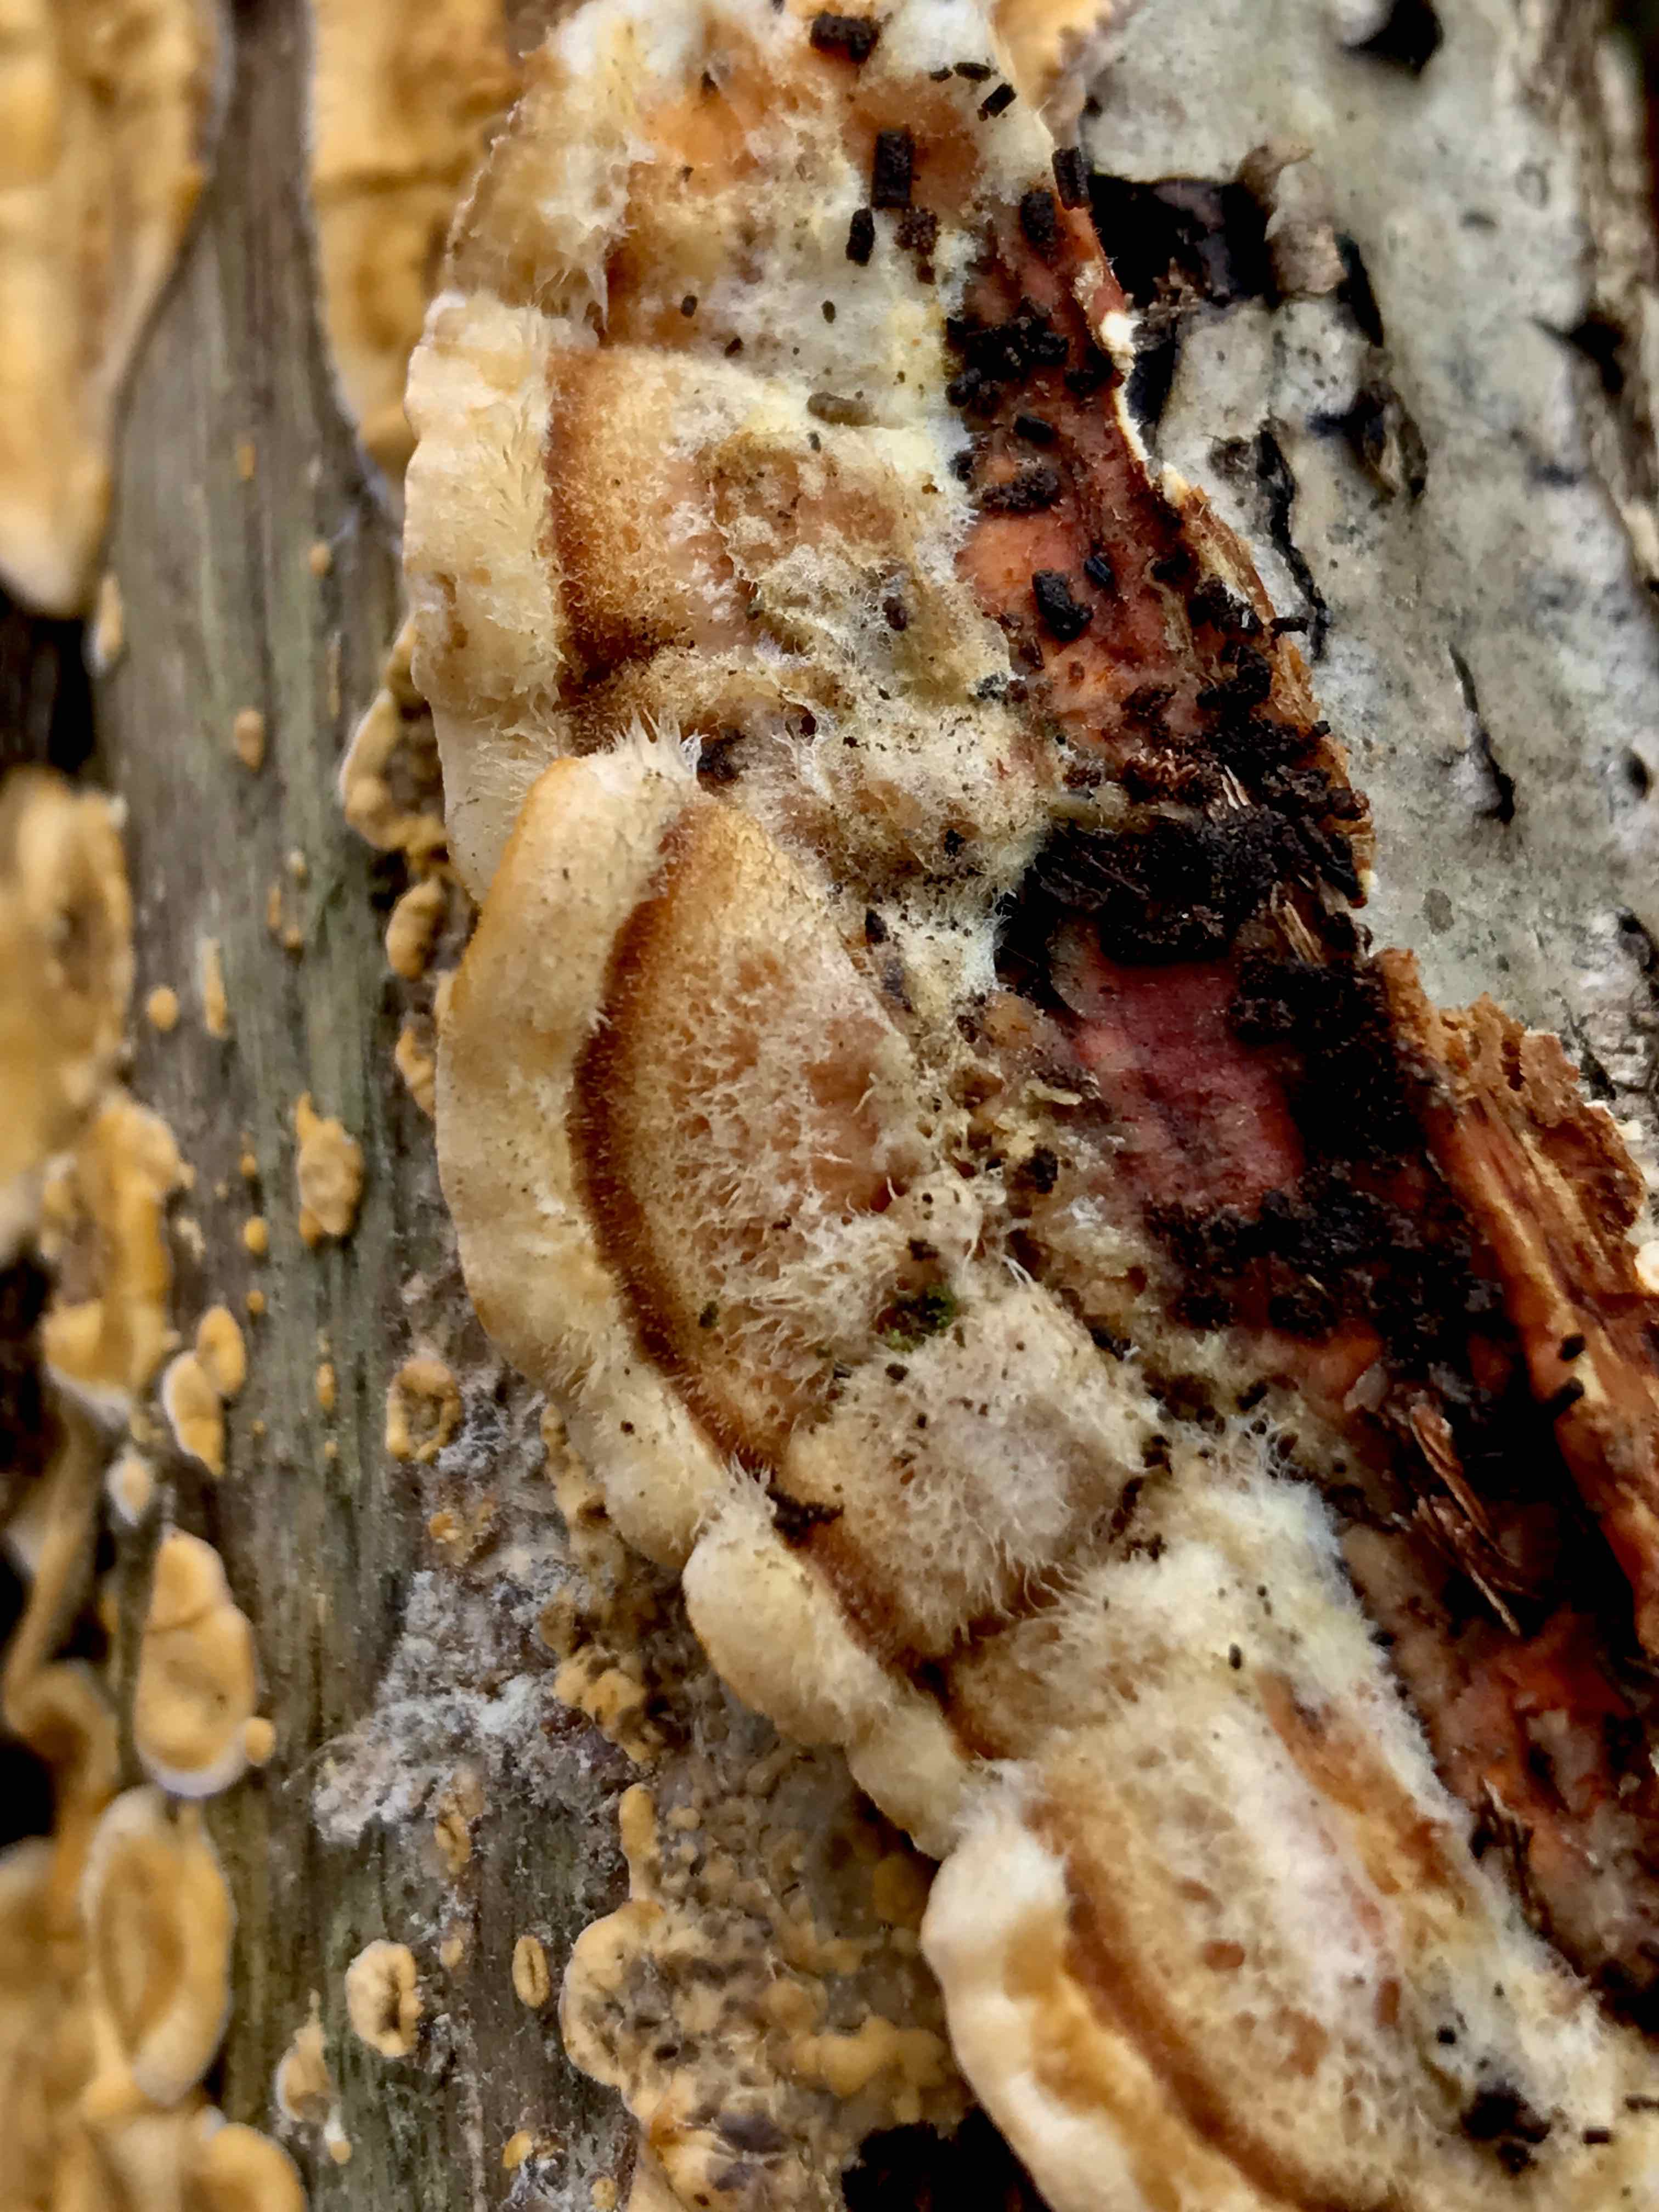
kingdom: Fungi
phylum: Basidiomycota
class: Agaricomycetes
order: Russulales
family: Stereaceae
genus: Stereum
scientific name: Stereum hirsutum
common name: håret lædersvamp
